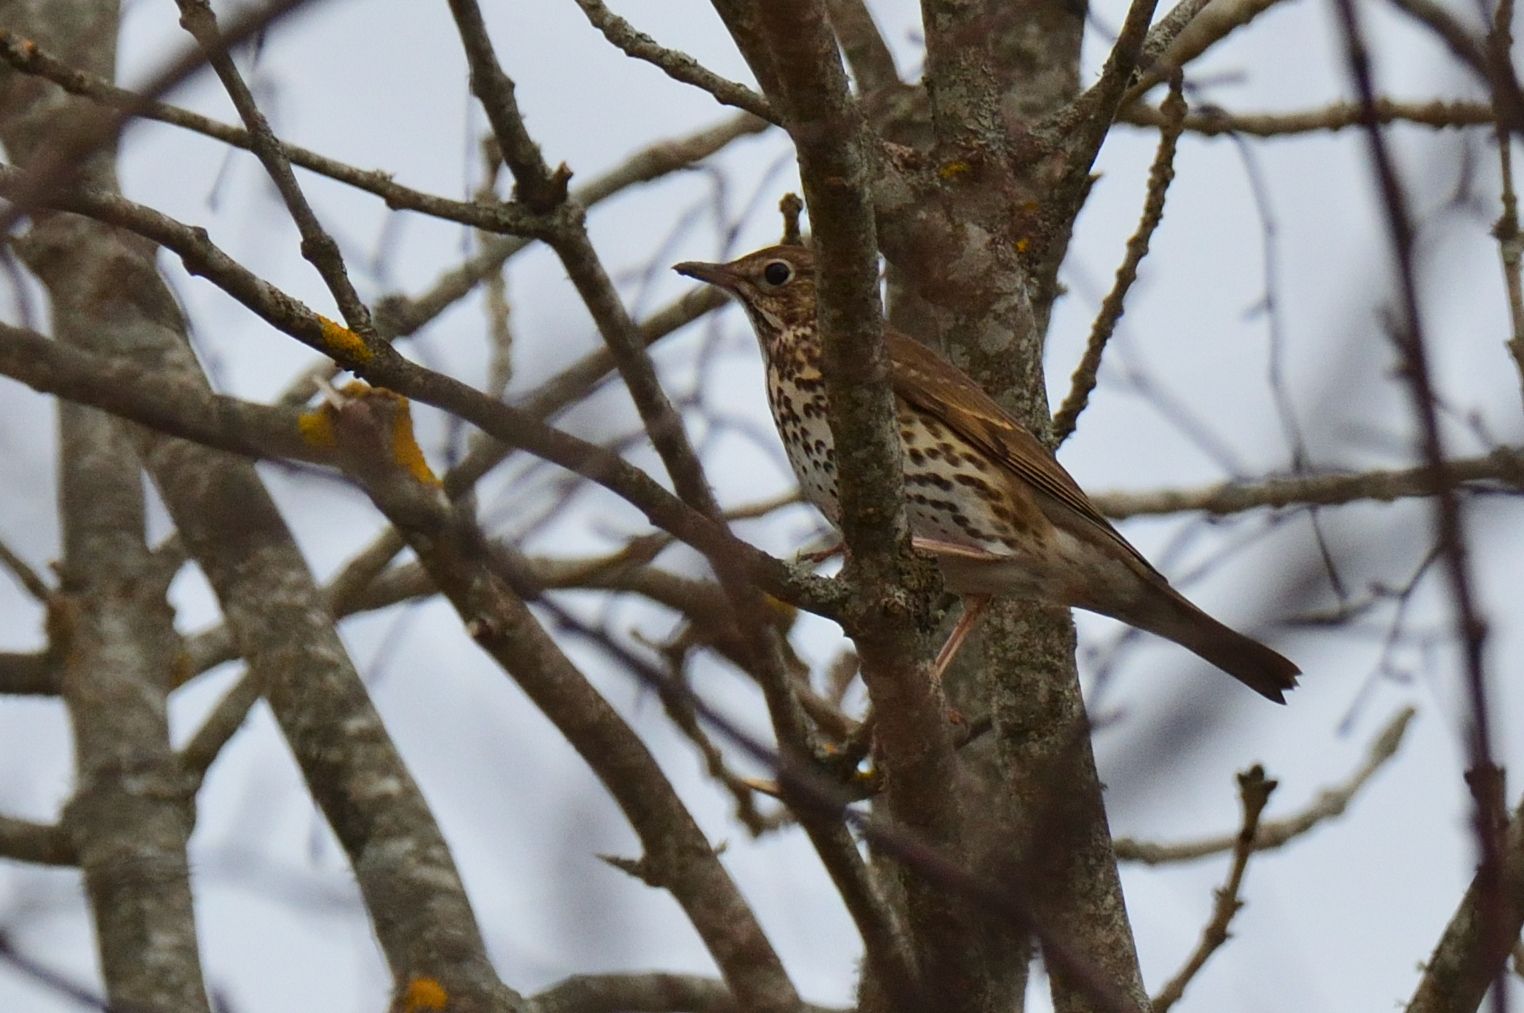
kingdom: Animalia
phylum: Chordata
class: Aves
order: Passeriformes
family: Turdidae
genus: Turdus
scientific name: Turdus philomelos
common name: Song thrush
